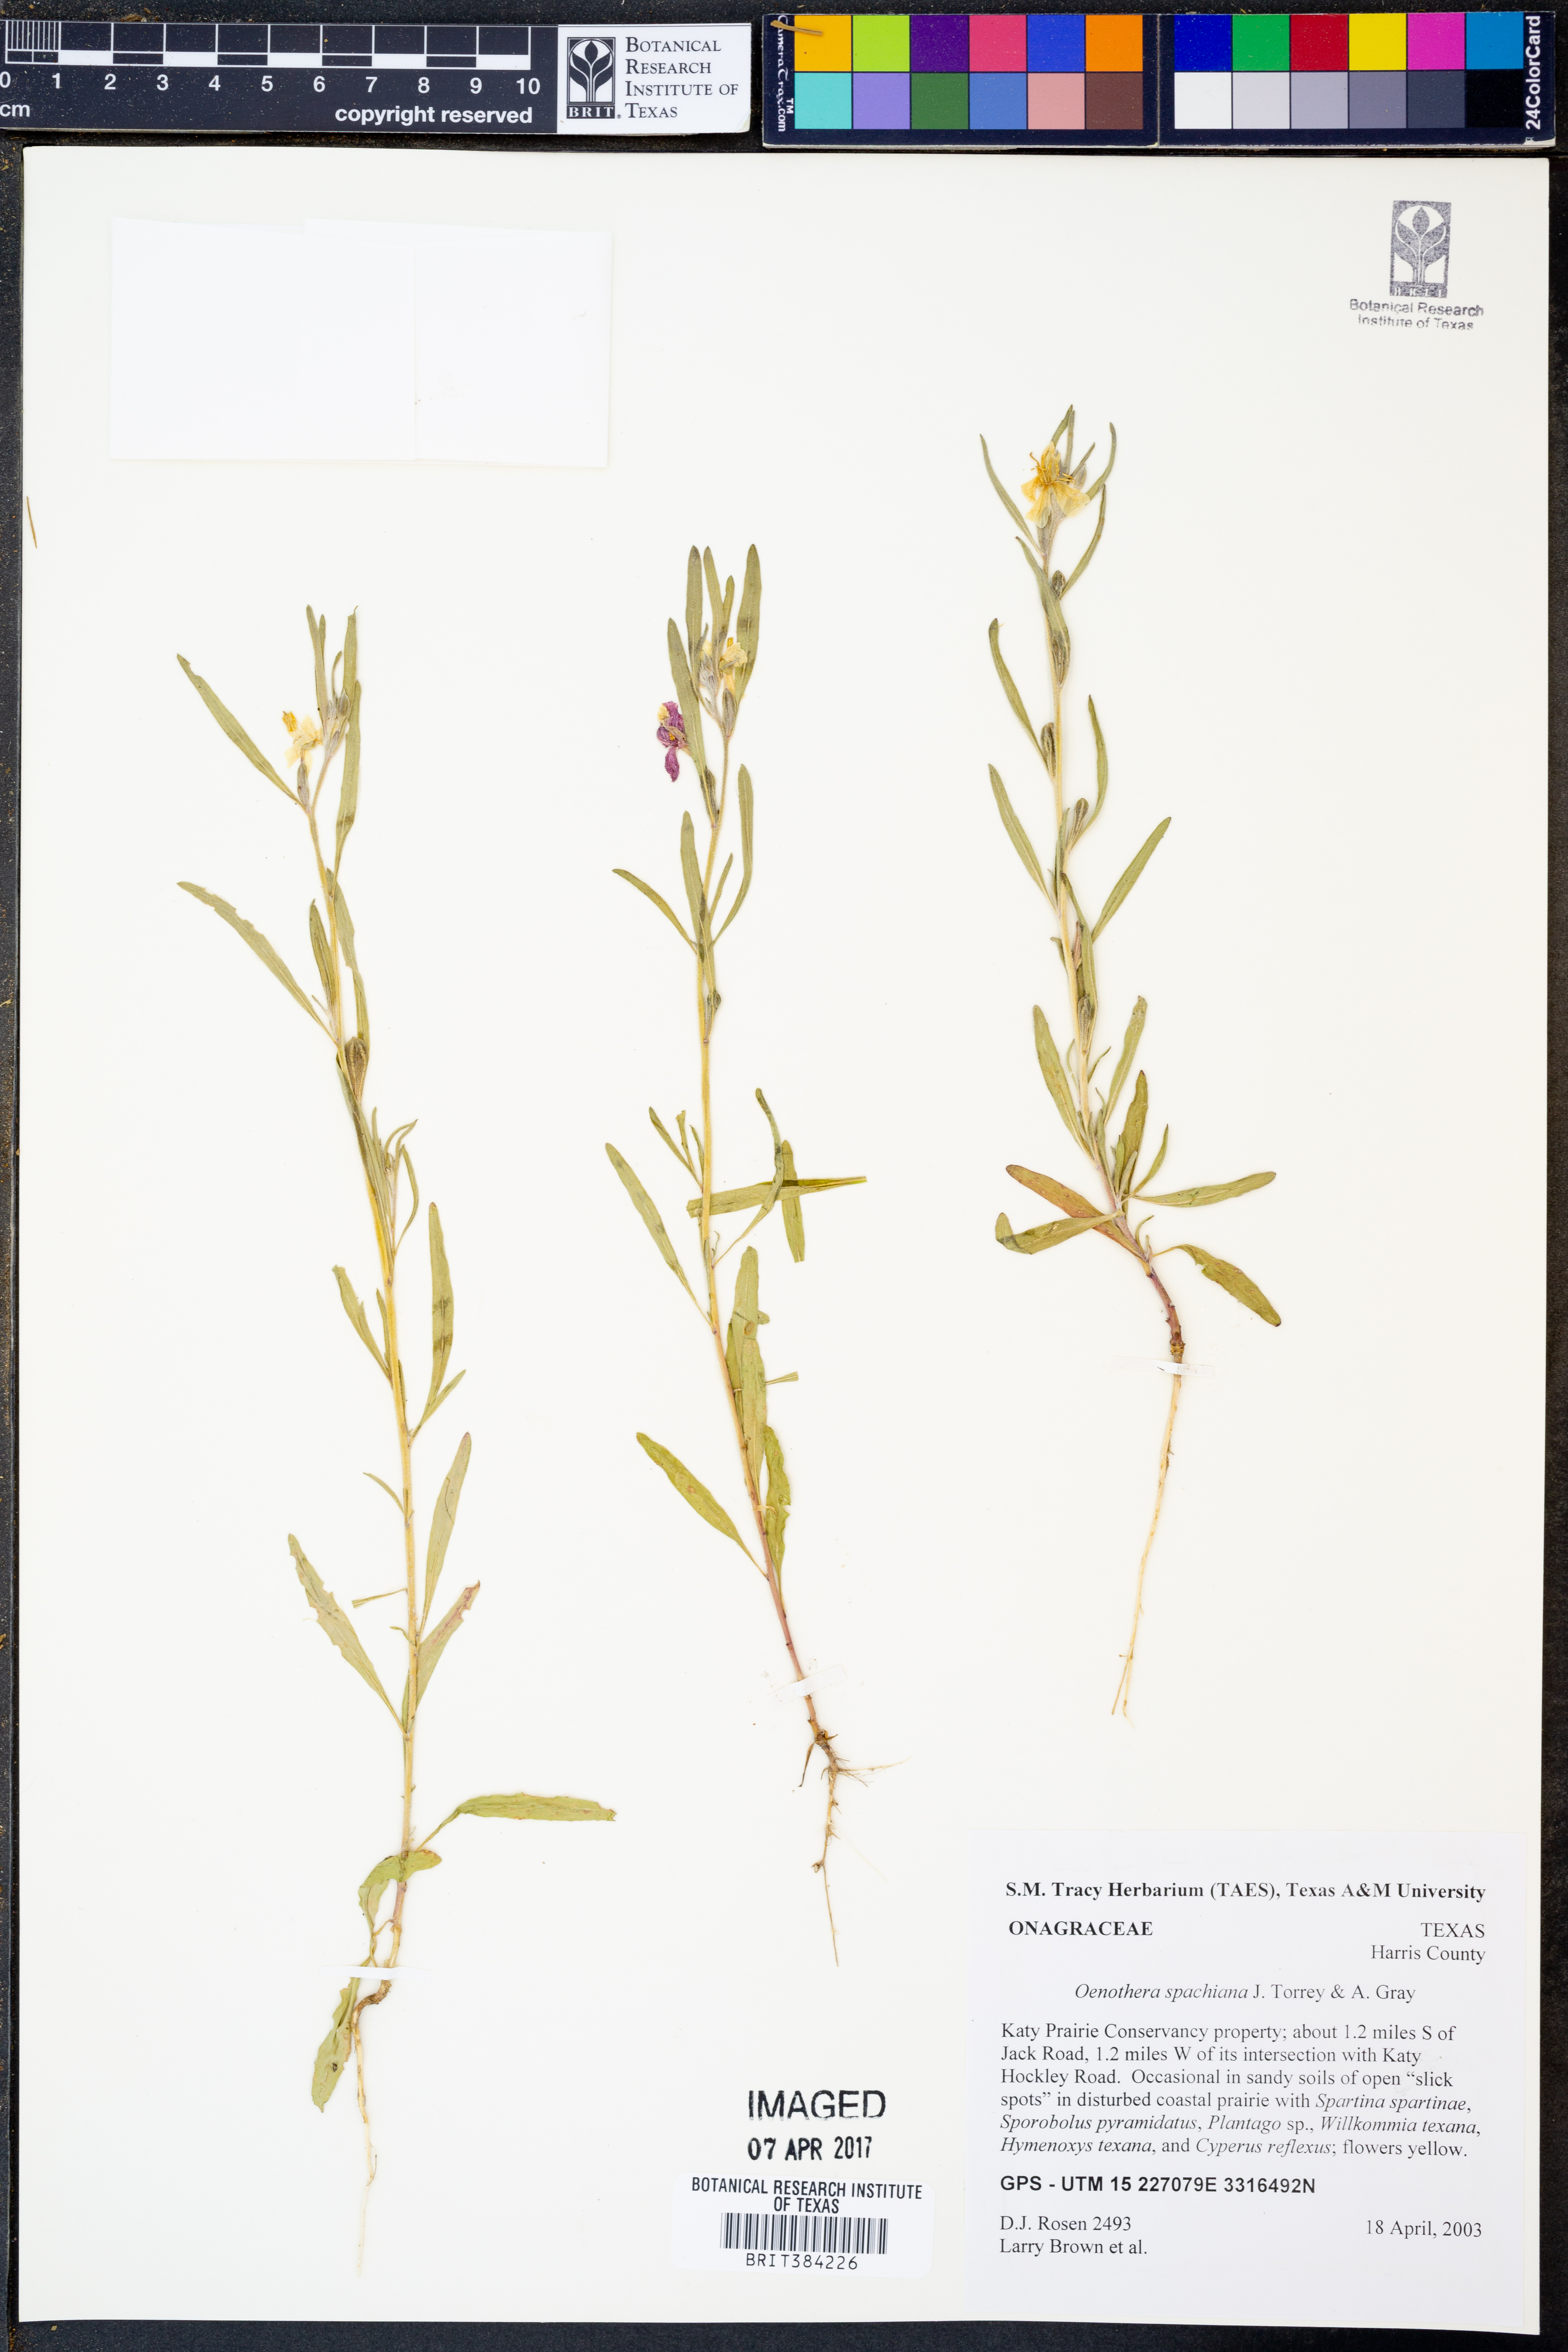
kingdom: Plantae
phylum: Tracheophyta
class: Magnoliopsida
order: Myrtales
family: Onagraceae
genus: Oenothera
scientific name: Oenothera spachiana
